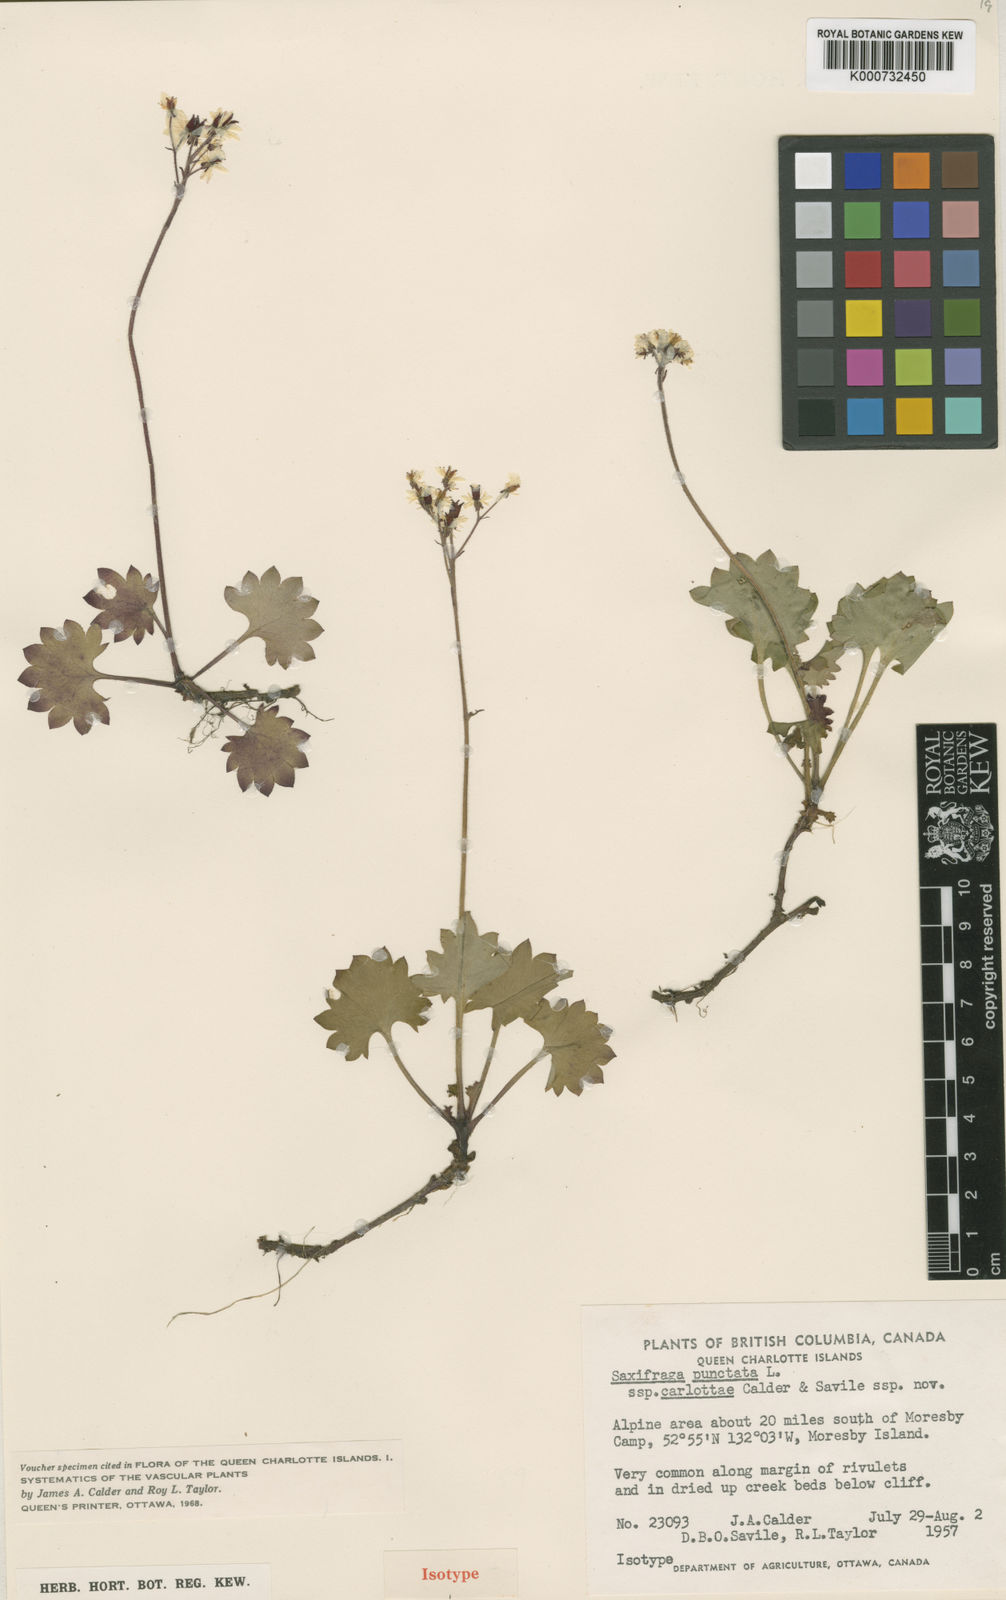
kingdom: Plantae
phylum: Tracheophyta
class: Magnoliopsida
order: Saxifragales
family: Saxifragaceae
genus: Micranthes
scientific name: Micranthes nelsoniana
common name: Nelson's saxifrage
